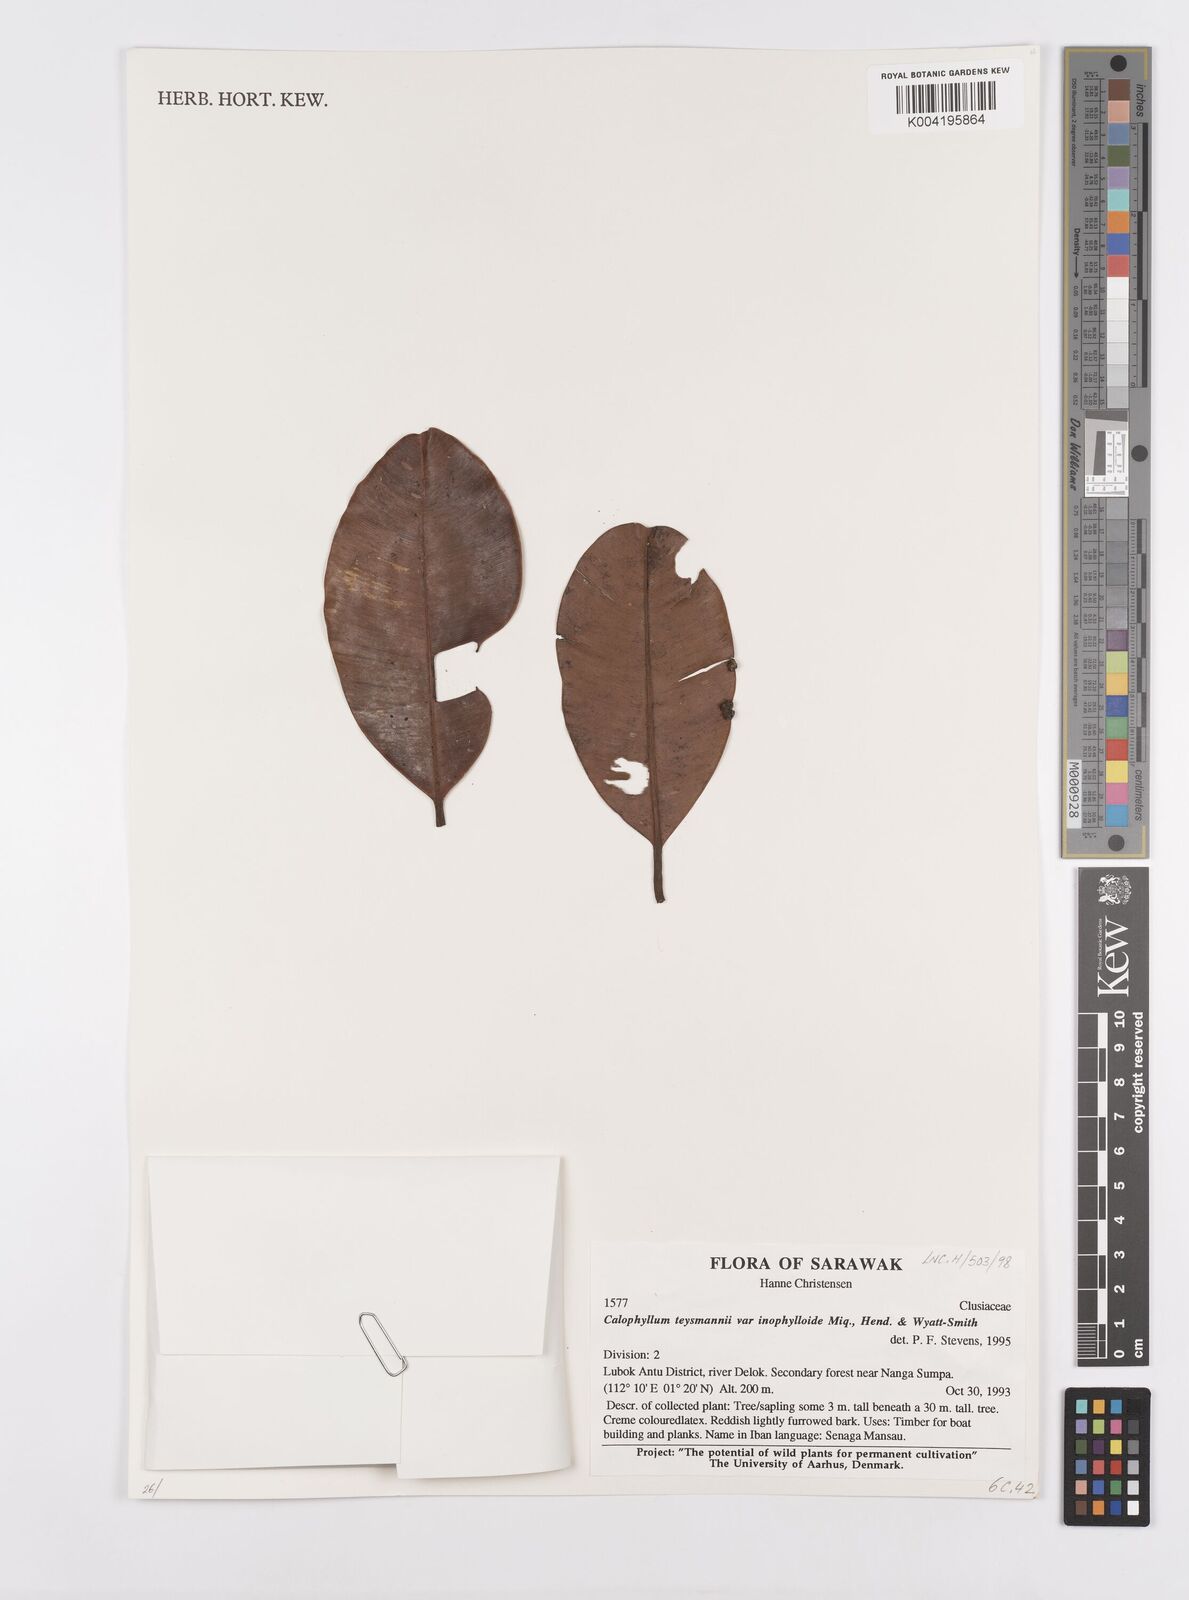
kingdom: Plantae
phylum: Tracheophyta
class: Magnoliopsida
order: Malpighiales
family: Calophyllaceae
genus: Calophyllum
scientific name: Calophyllum teysmannii
